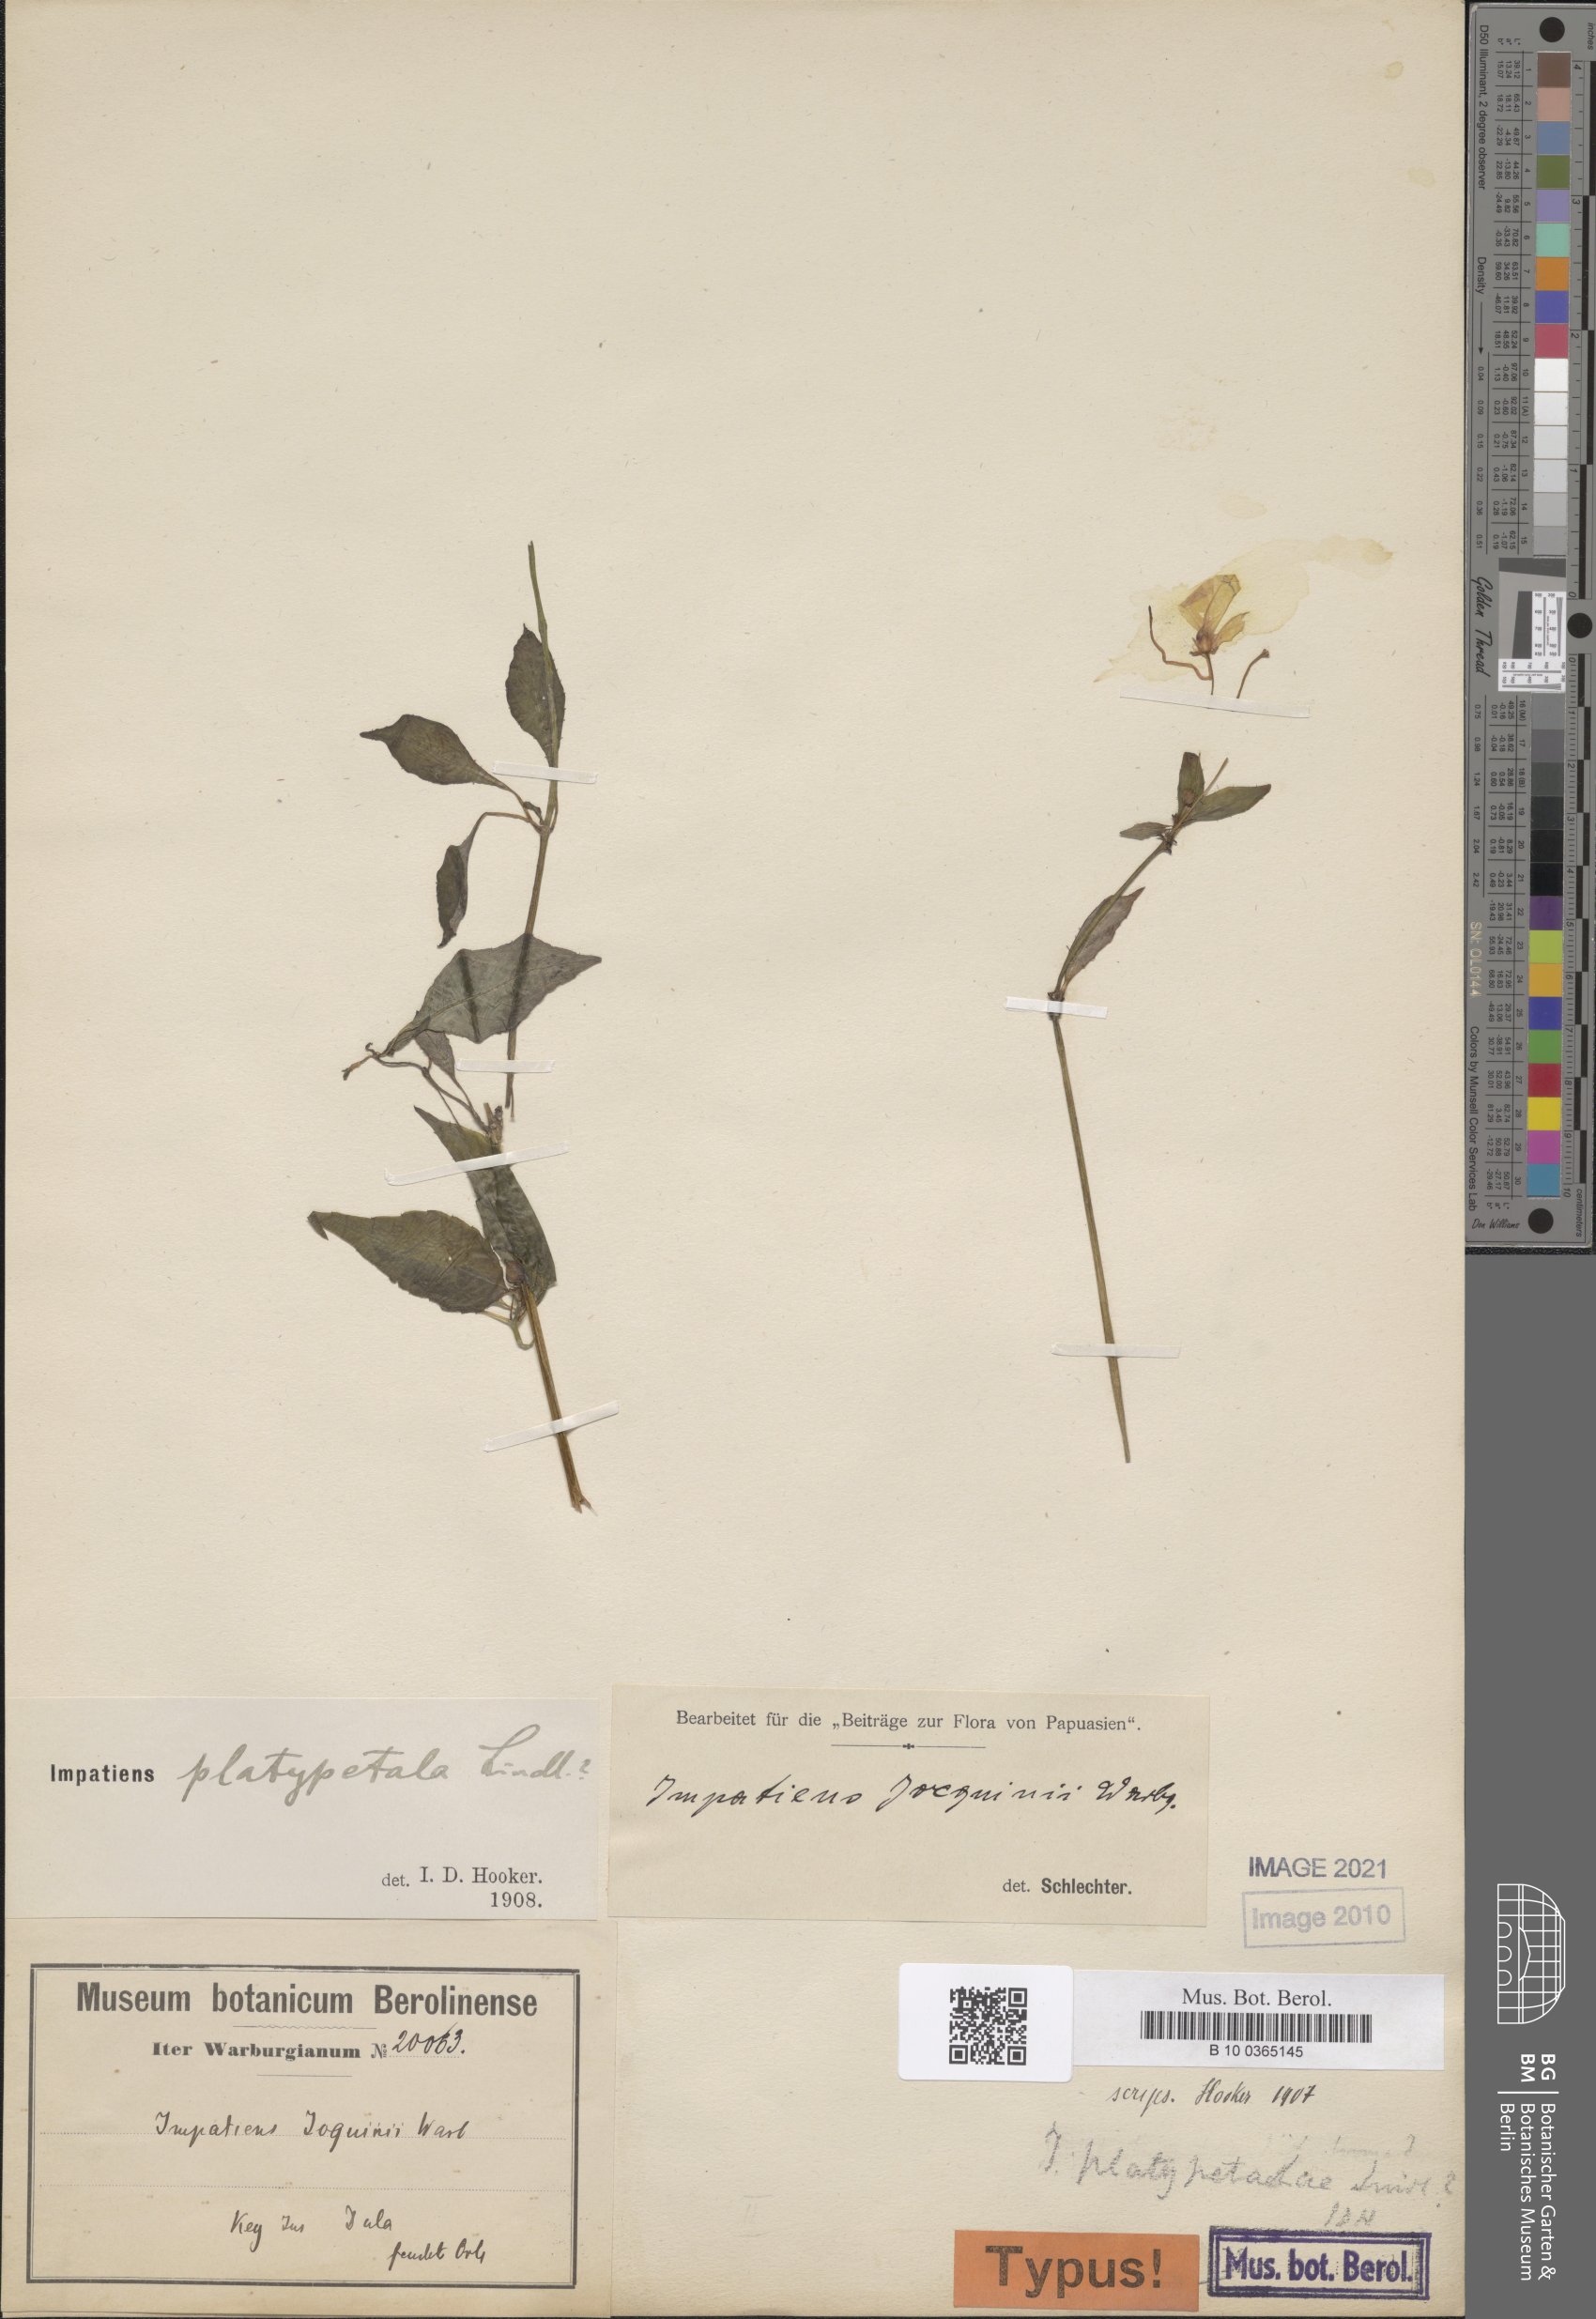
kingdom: Plantae
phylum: Tracheophyta
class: Magnoliopsida
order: Ericales
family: Balsaminaceae
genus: Impatiens
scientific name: Impatiens hochstetteri
